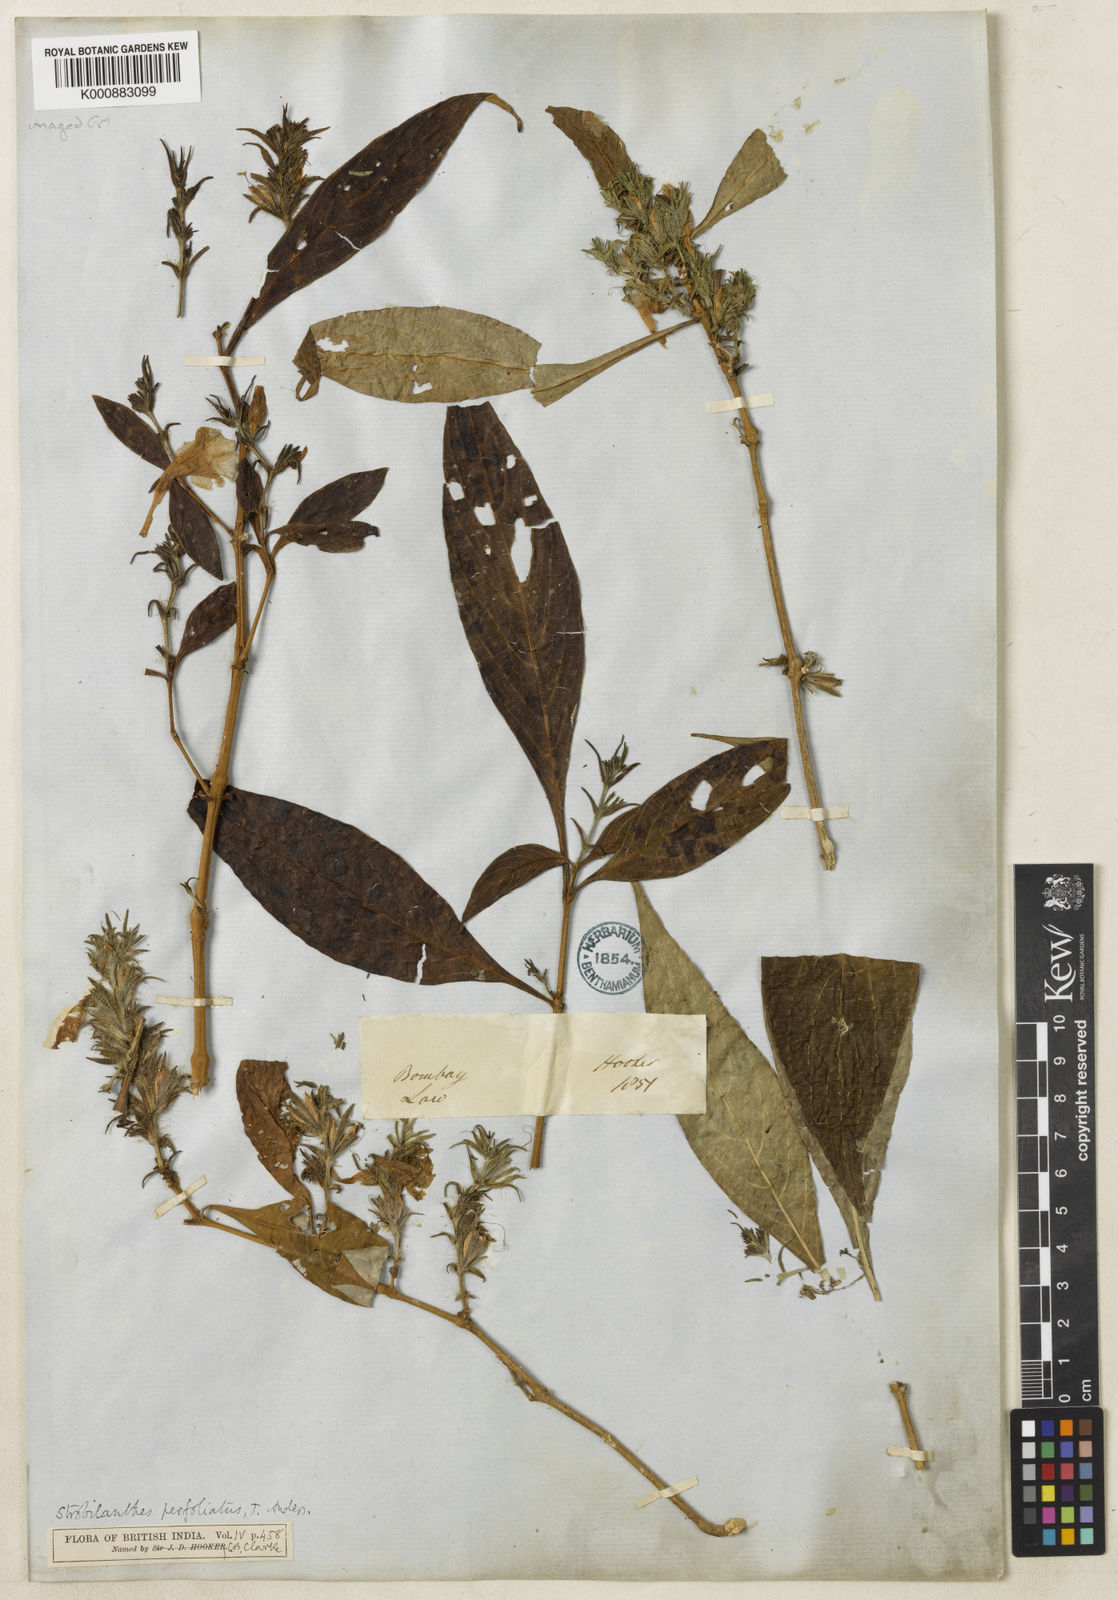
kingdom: Plantae
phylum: Tracheophyta
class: Magnoliopsida
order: Lamiales
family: Acanthaceae
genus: Strobilanthes
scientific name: Strobilanthes integrifolia
